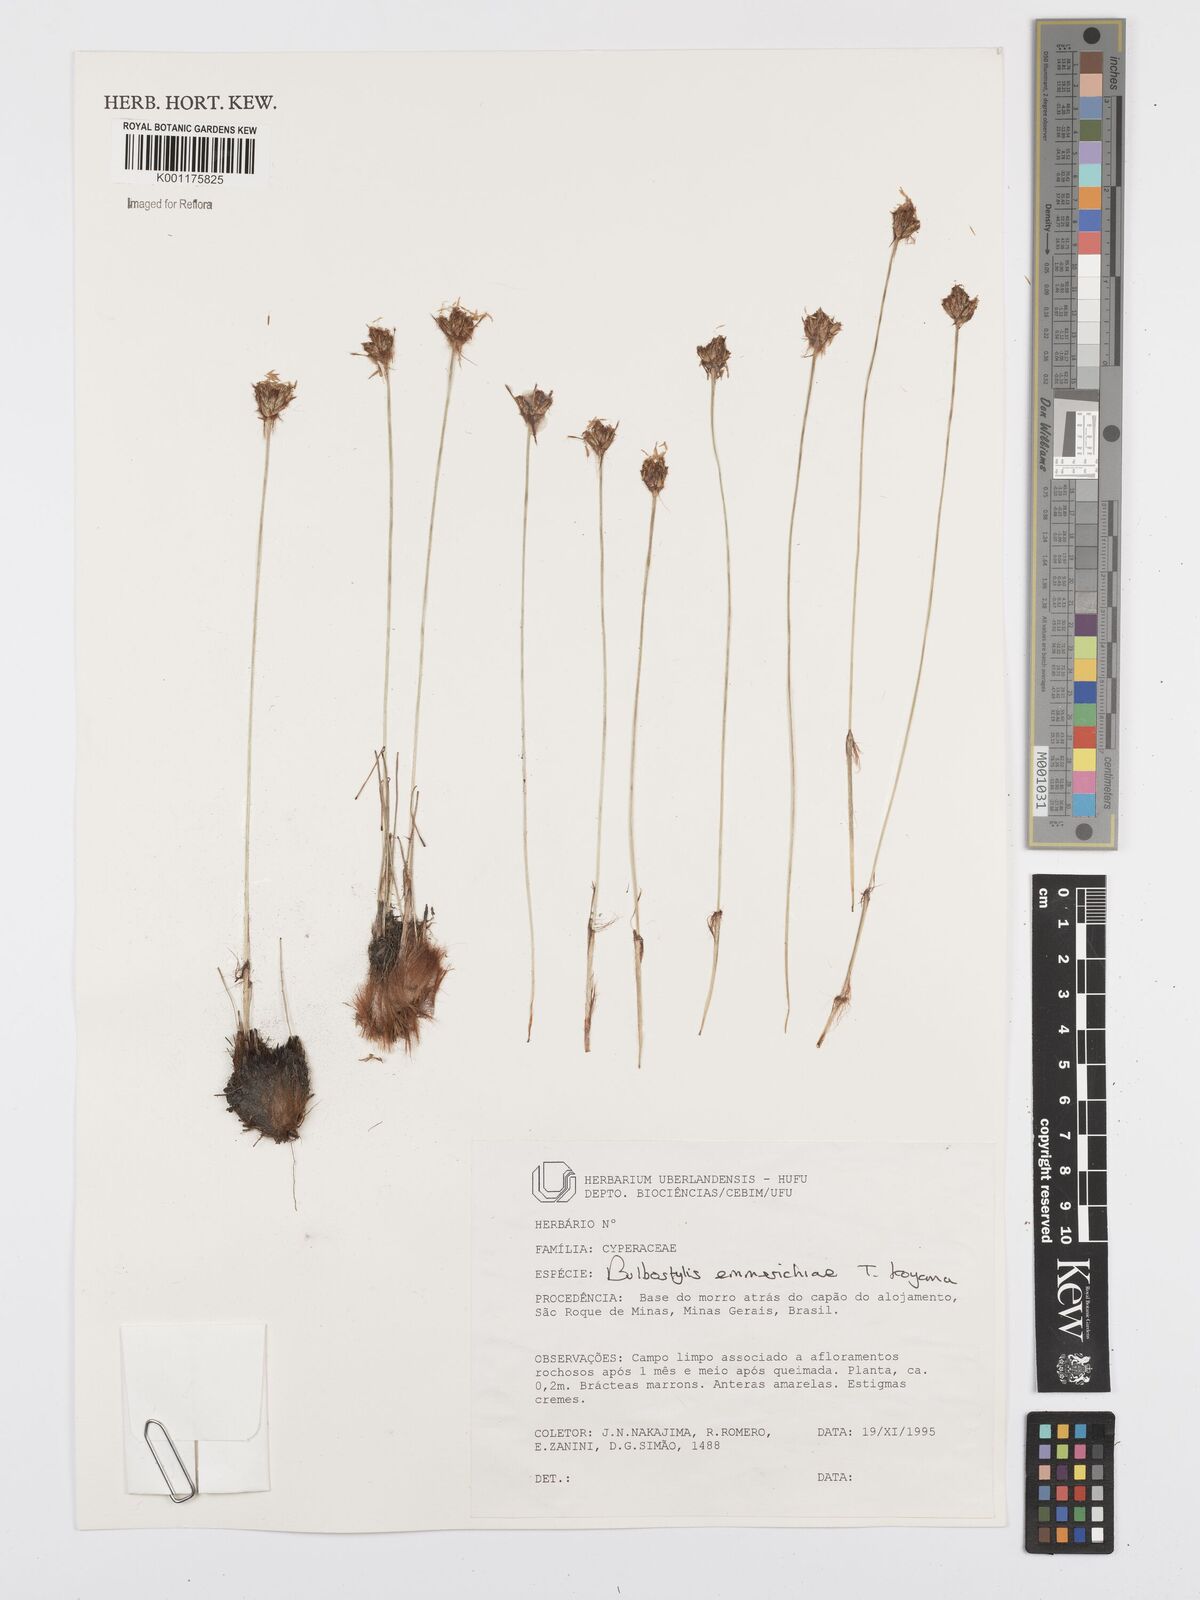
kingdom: Plantae
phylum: Tracheophyta
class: Liliopsida
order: Poales
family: Cyperaceae
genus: Bulbostylis
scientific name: Bulbostylis emmerichiae
